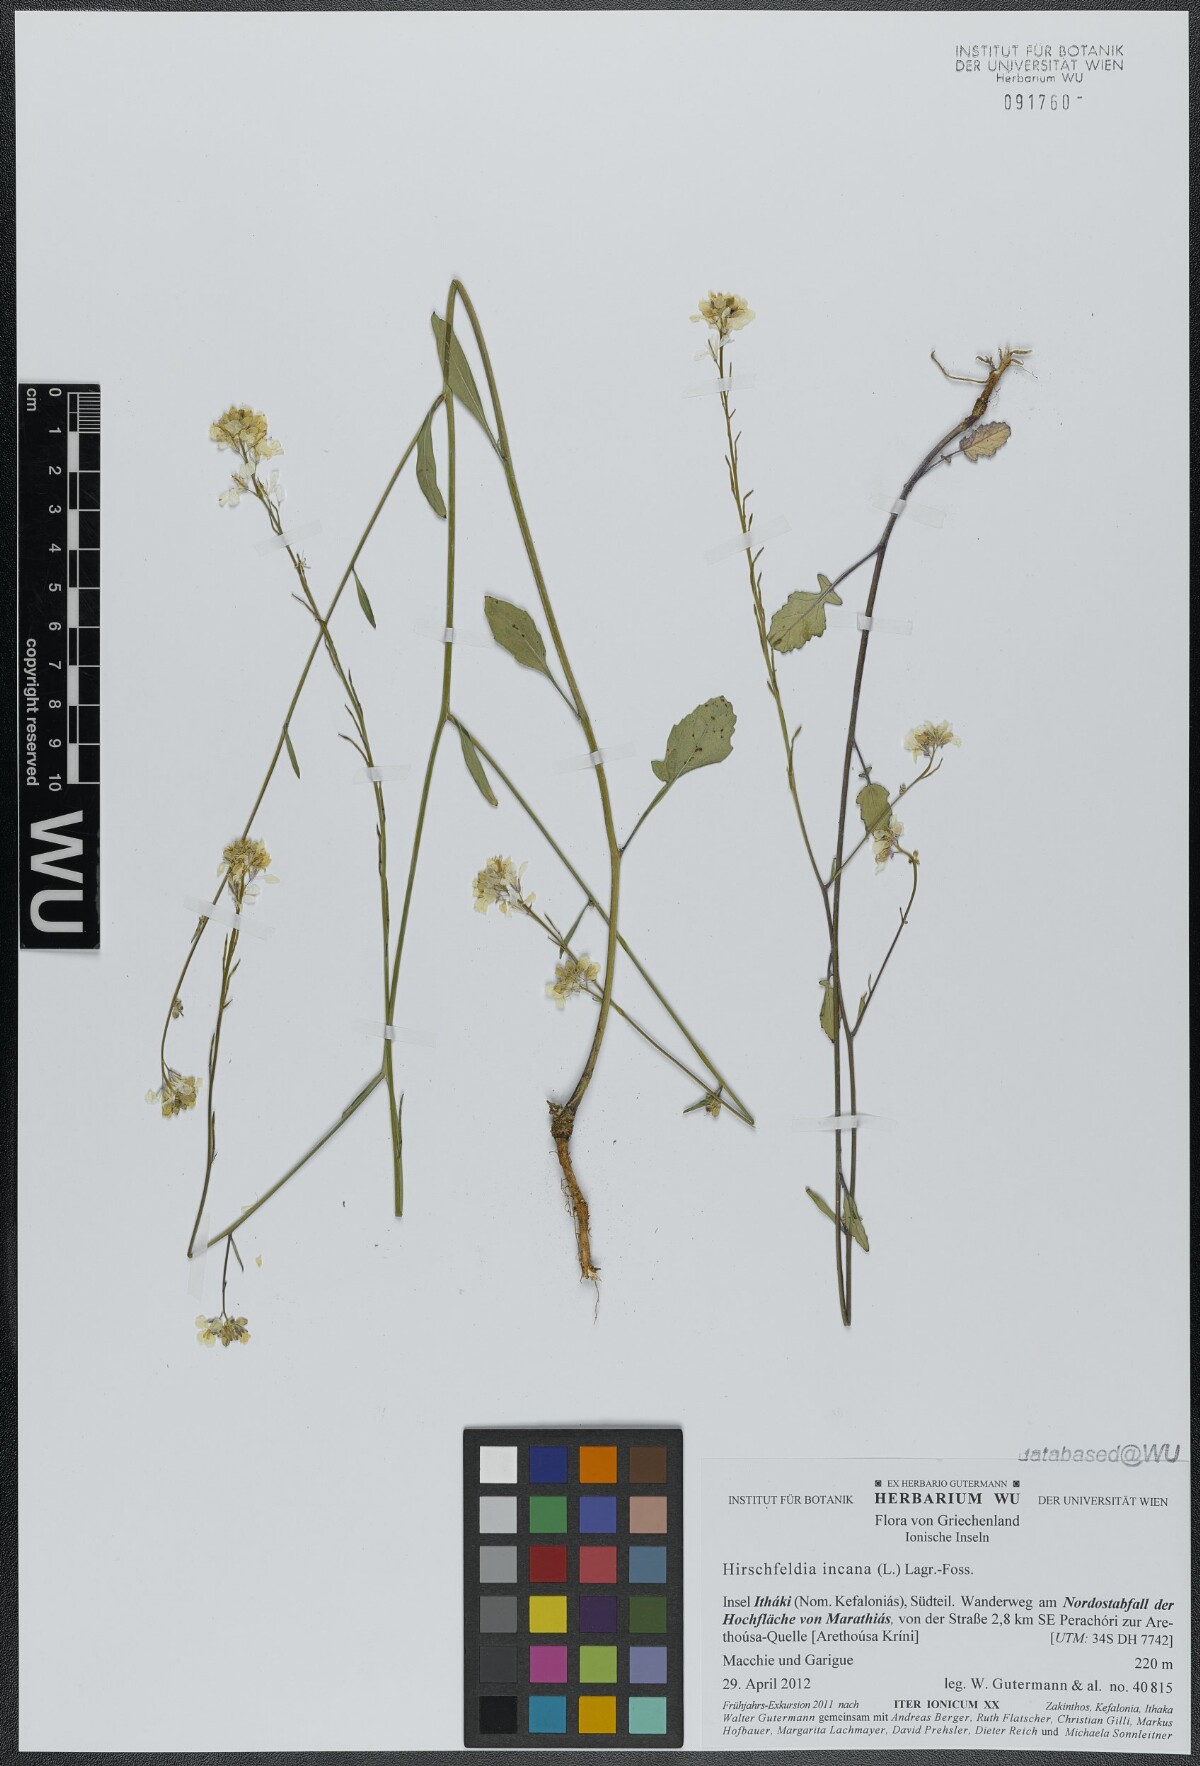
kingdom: Plantae
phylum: Tracheophyta
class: Magnoliopsida
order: Brassicales
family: Brassicaceae
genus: Hirschfeldia
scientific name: Hirschfeldia incana
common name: Hoary mustard
